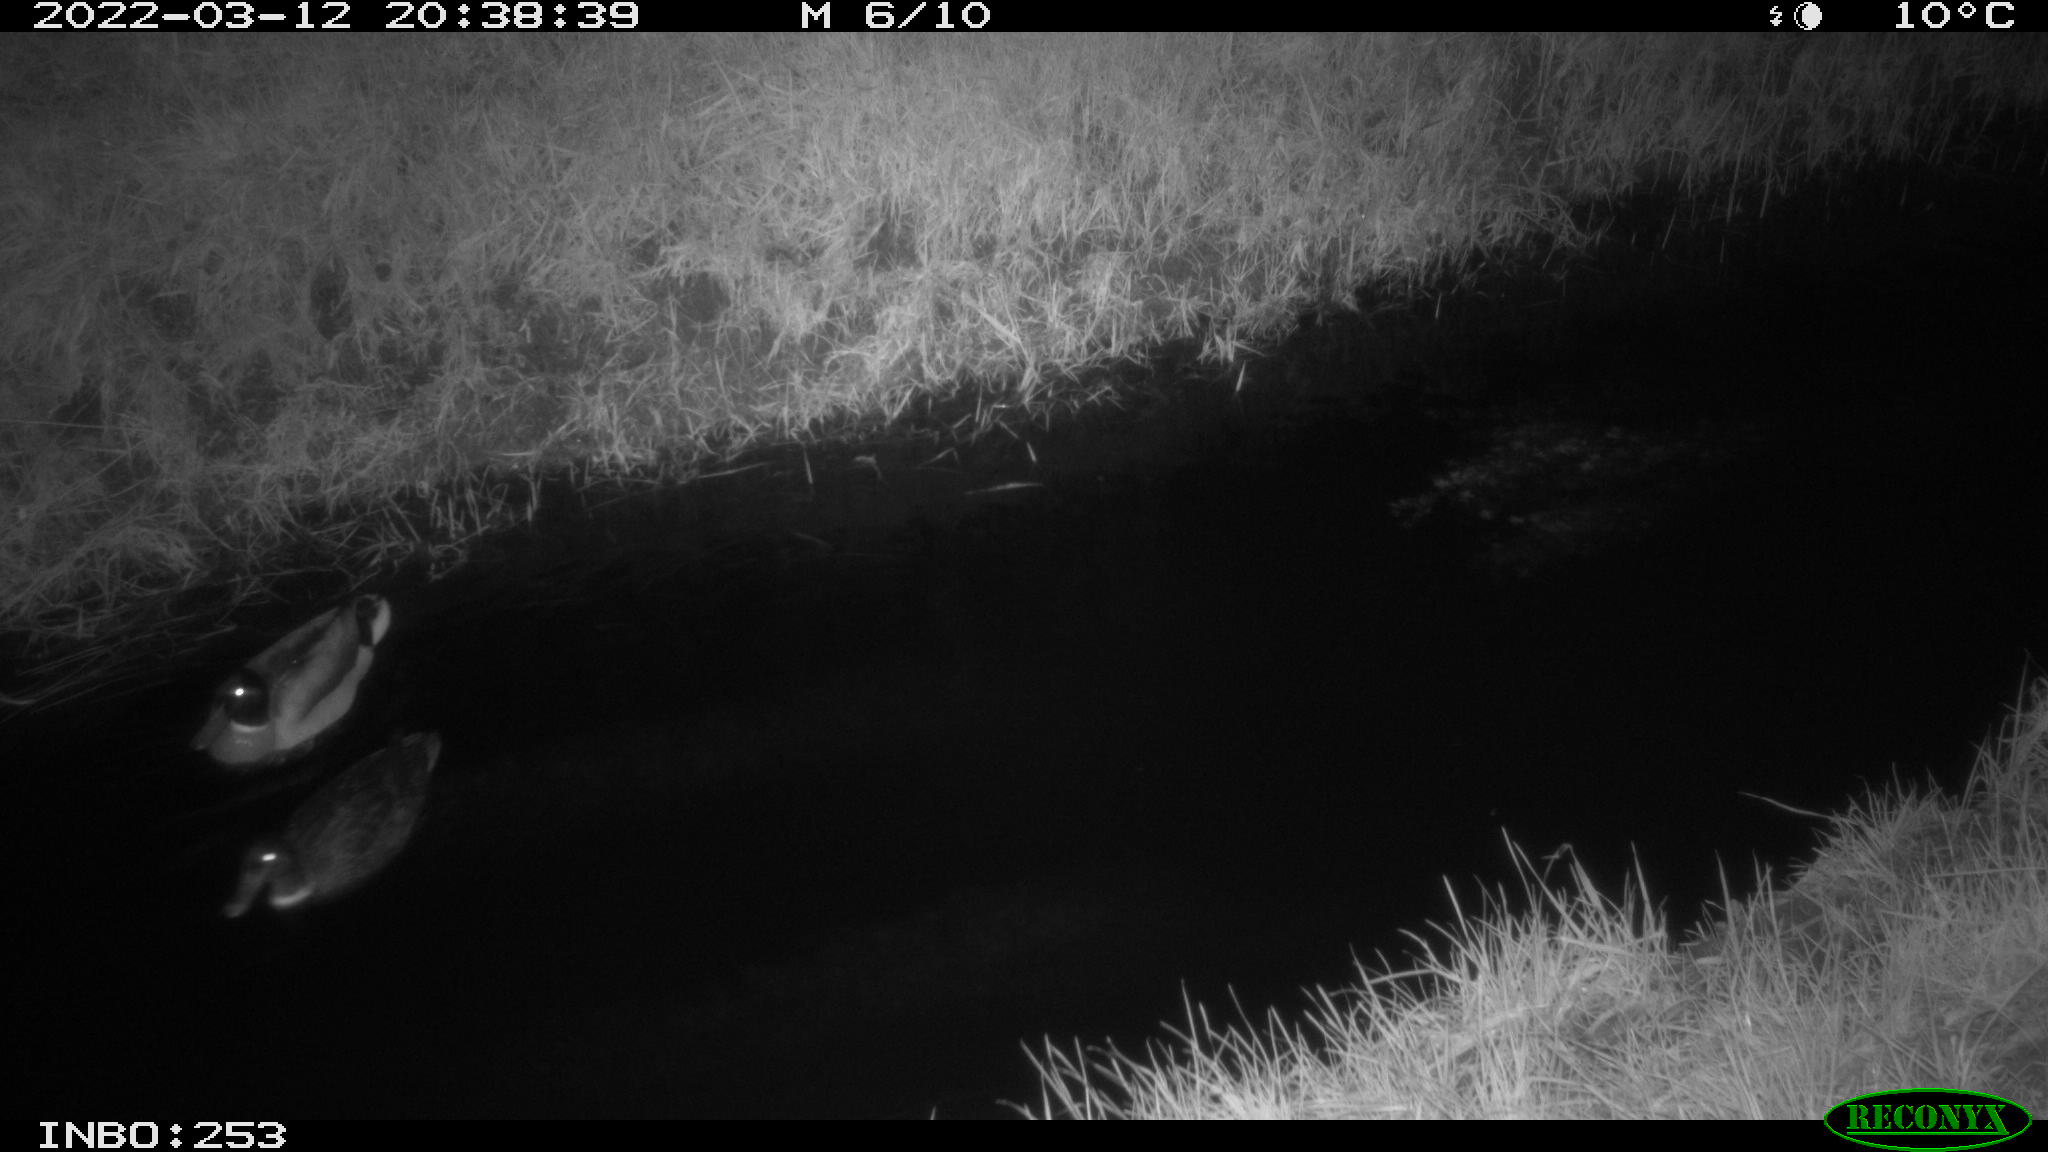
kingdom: Animalia
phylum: Chordata
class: Aves
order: Anseriformes
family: Anatidae
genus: Anas
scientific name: Anas platyrhynchos
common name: Mallard
